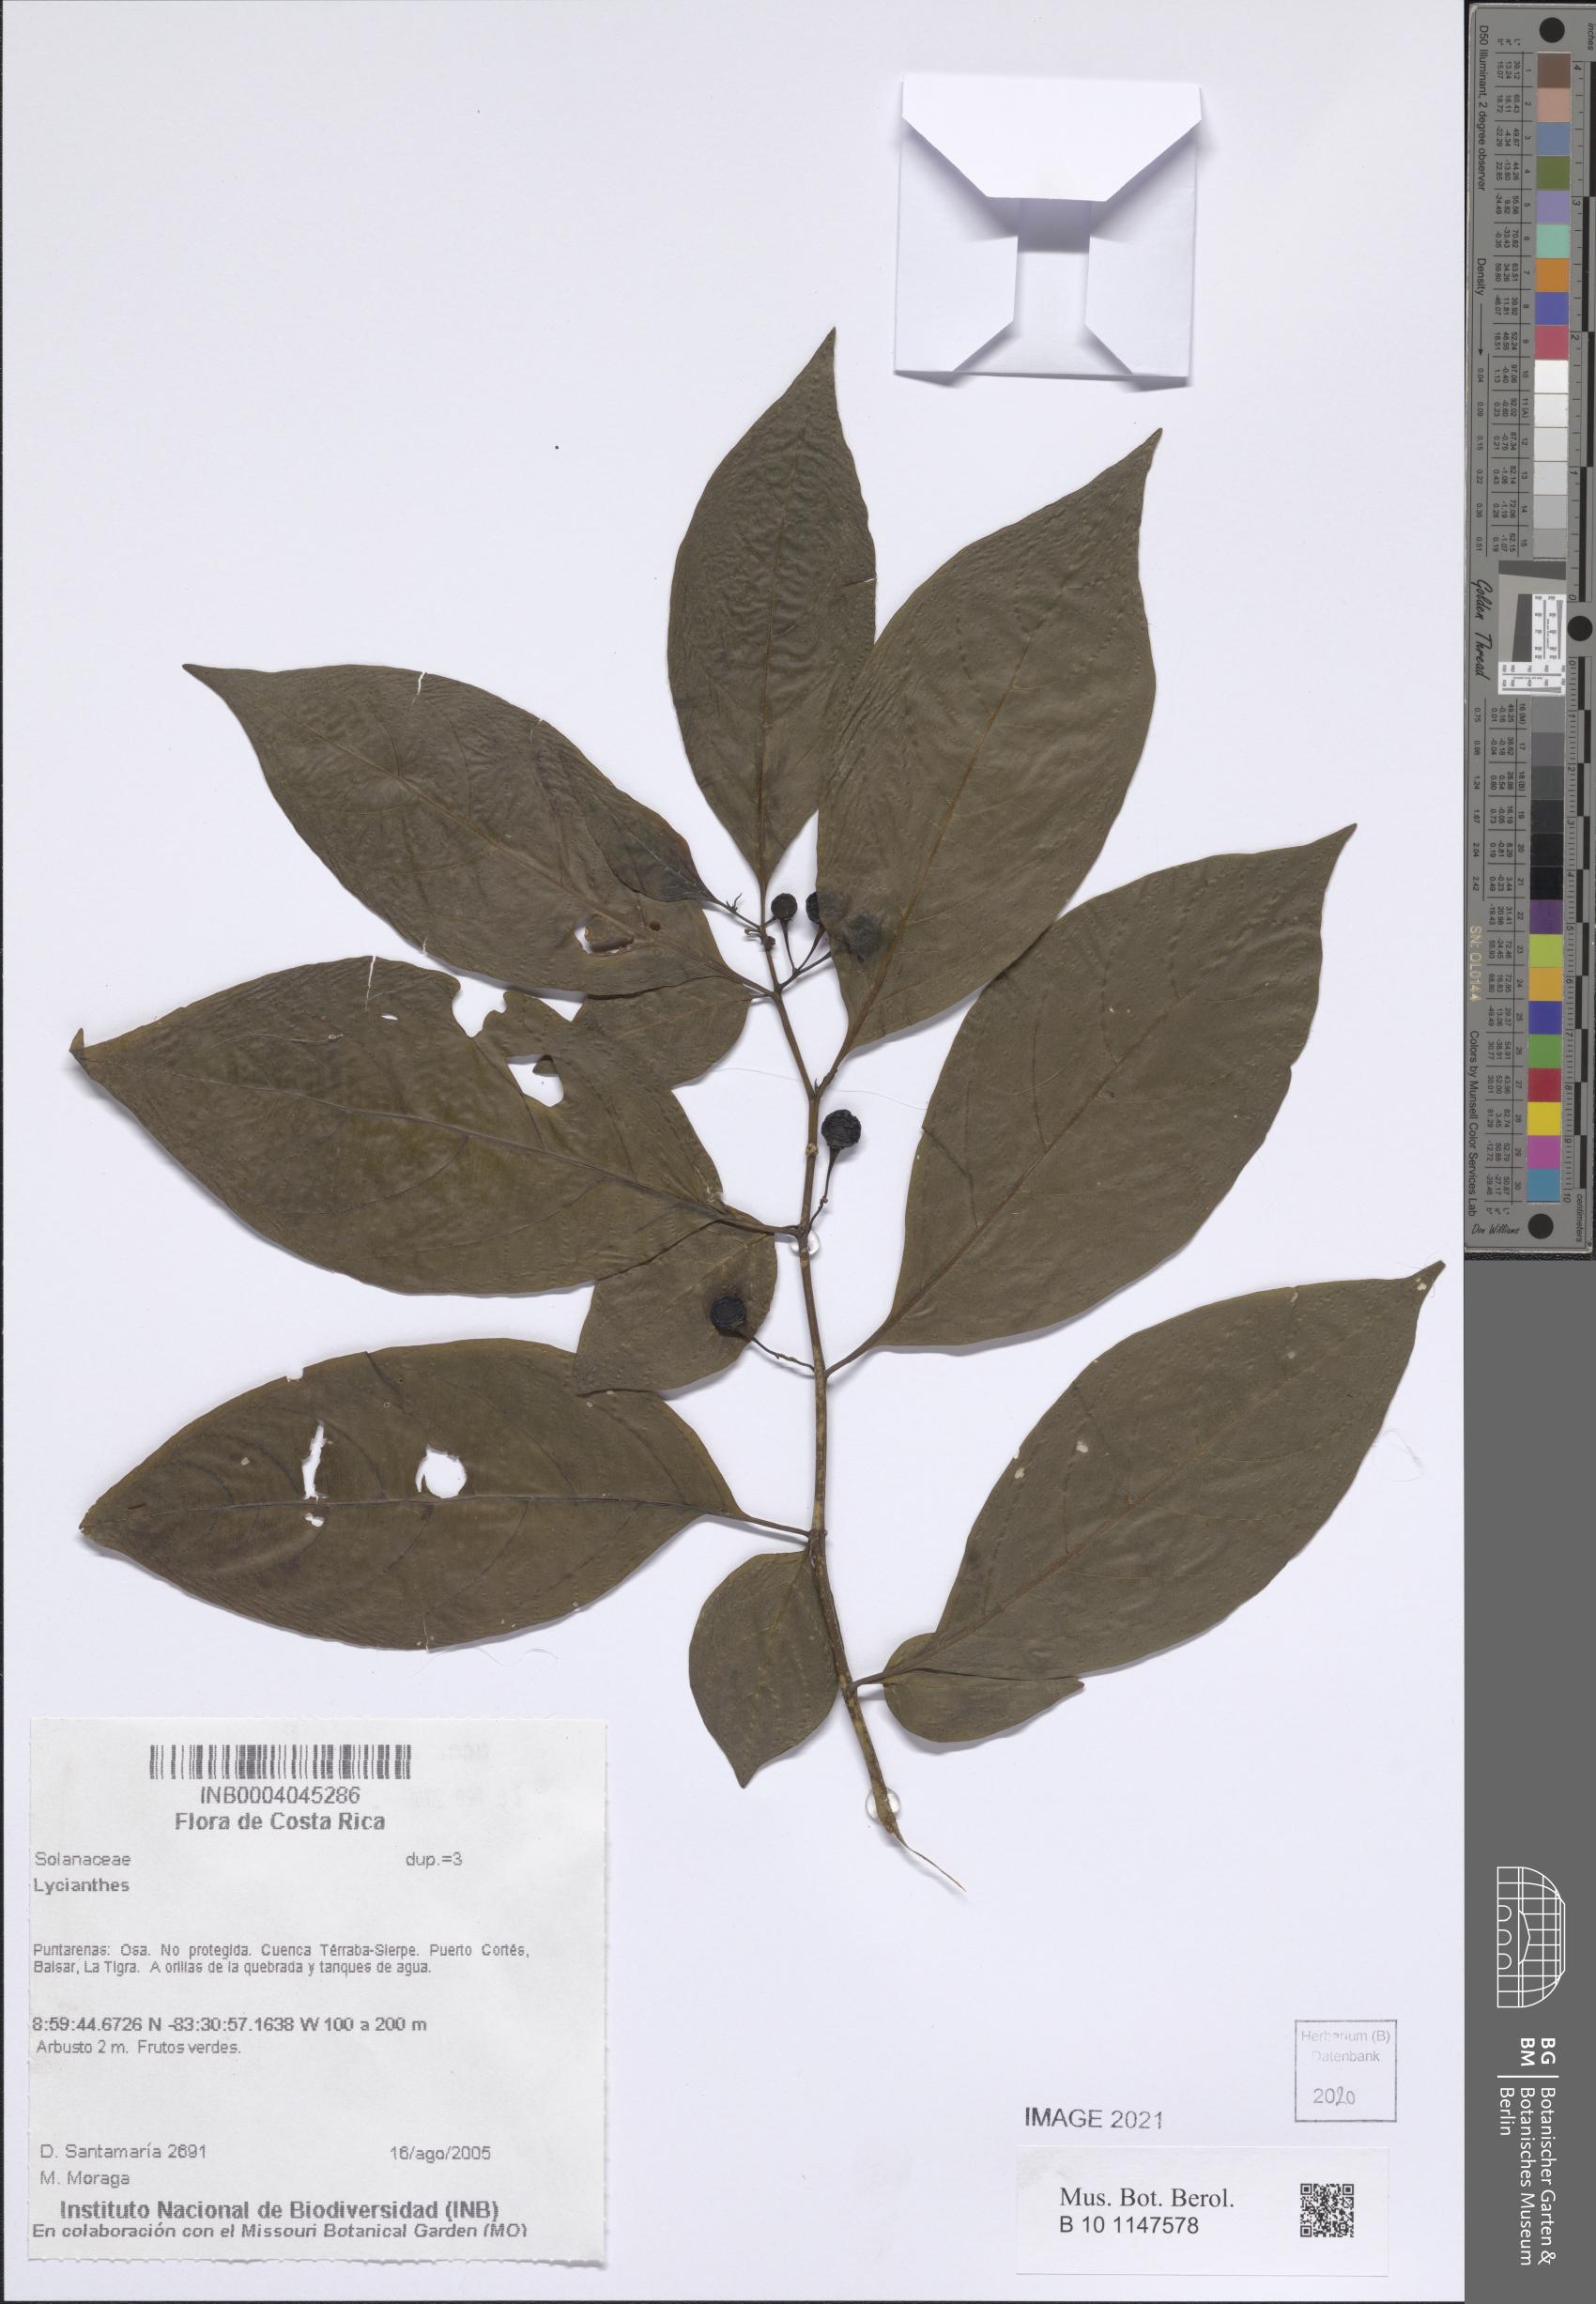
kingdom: Plantae
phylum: Tracheophyta
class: Magnoliopsida
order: Solanales
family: Solanaceae
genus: Lycianthes
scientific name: Lycianthes
